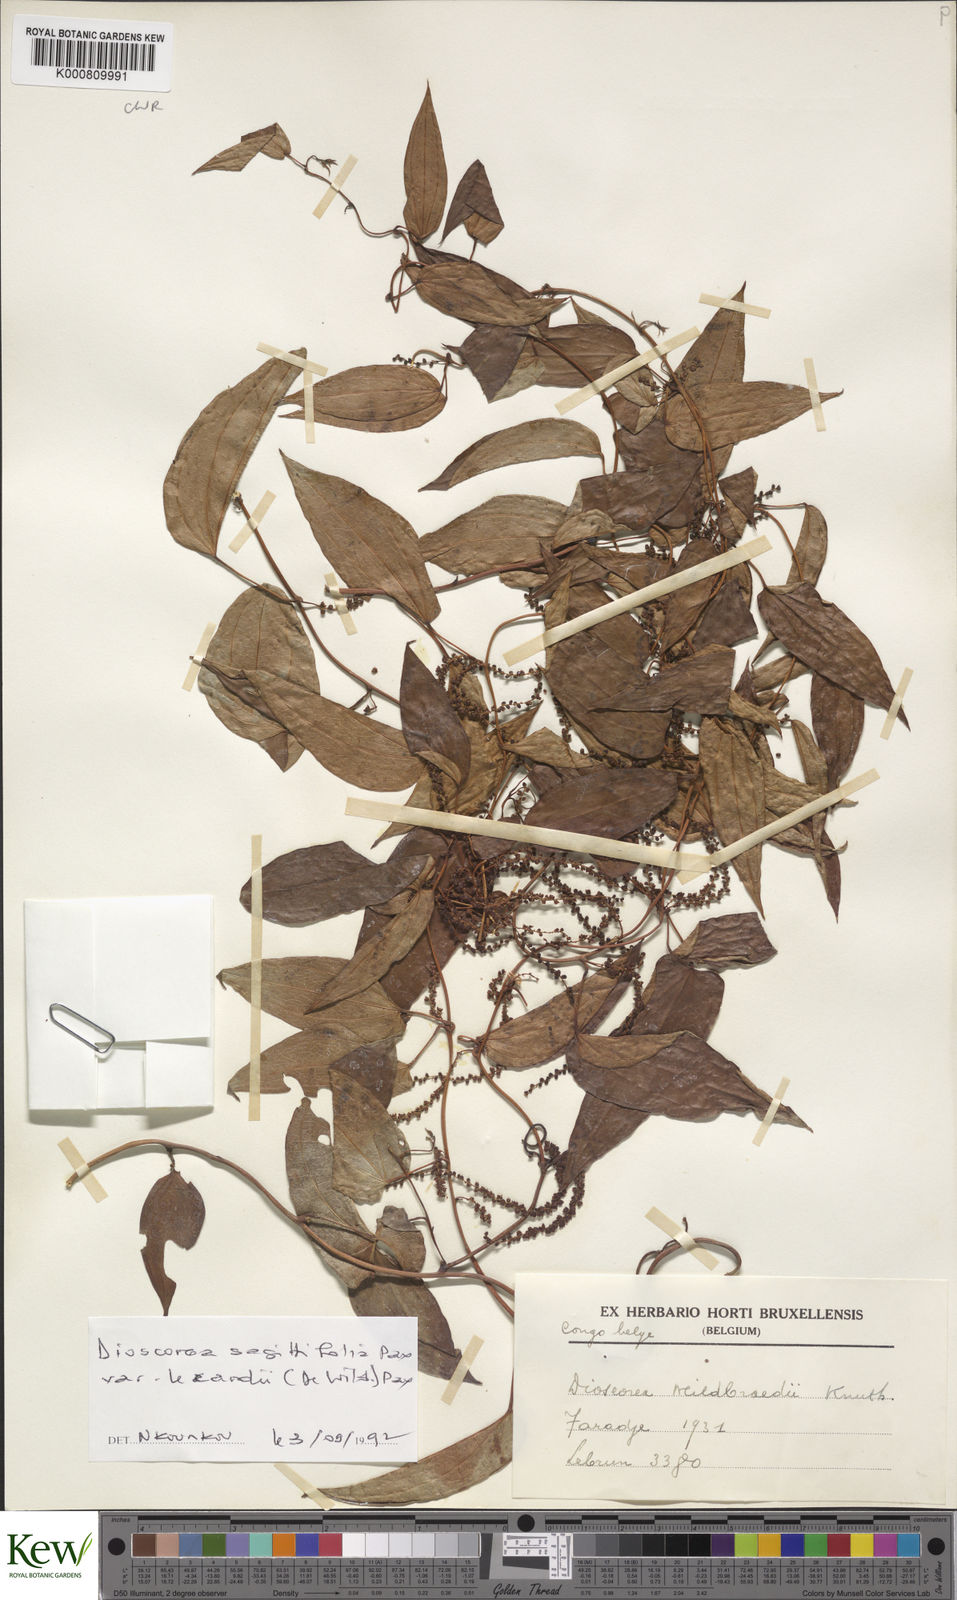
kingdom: Plantae
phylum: Tracheophyta
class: Liliopsida
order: Dioscoreales
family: Dioscoreaceae
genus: Dioscorea
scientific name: Dioscorea sagittifolia
